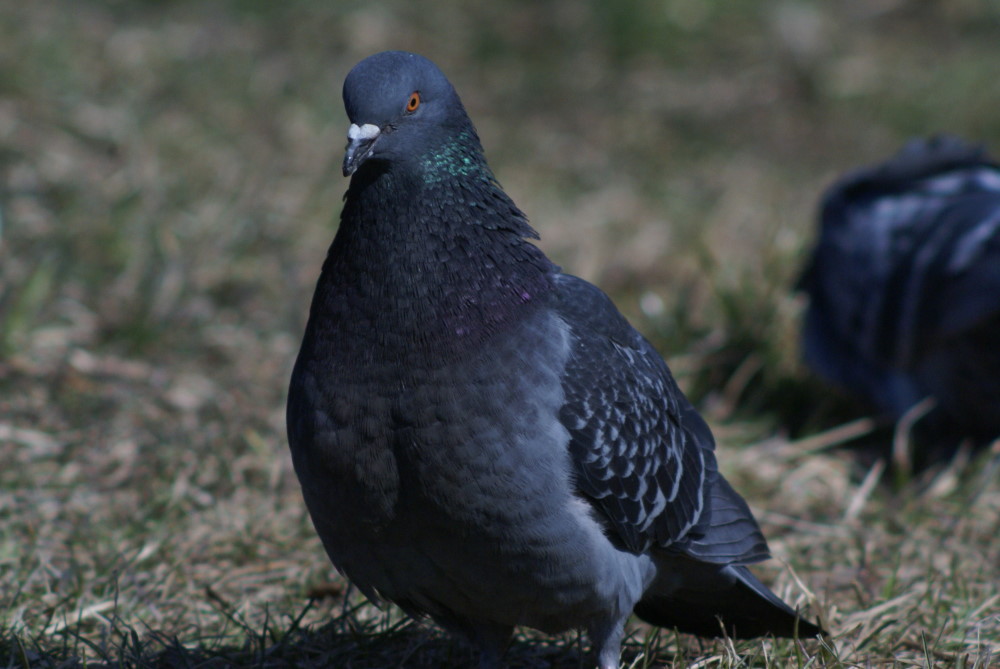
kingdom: Animalia
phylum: Chordata
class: Aves
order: Columbiformes
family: Columbidae
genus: Columba
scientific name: Columba livia
